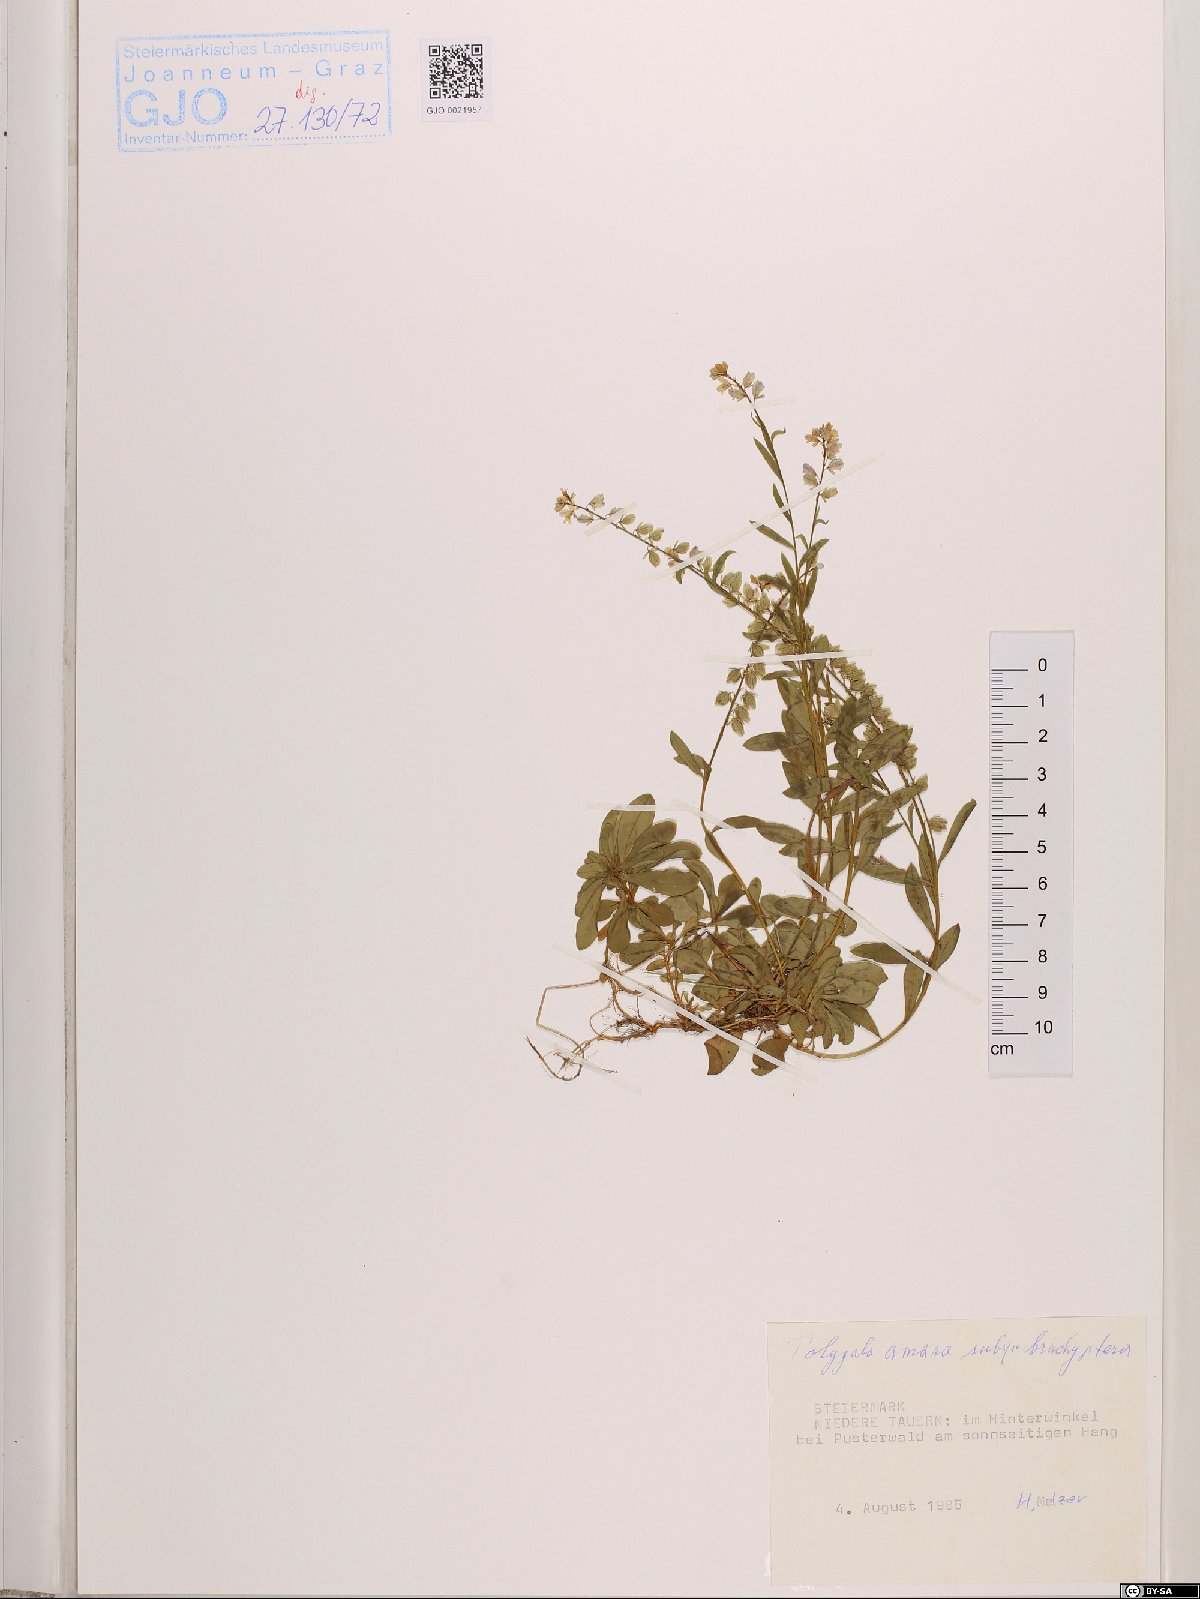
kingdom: Plantae
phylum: Tracheophyta
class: Magnoliopsida
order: Fabales
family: Polygalaceae
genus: Polygala
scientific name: Polygala amara
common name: Milkwort
